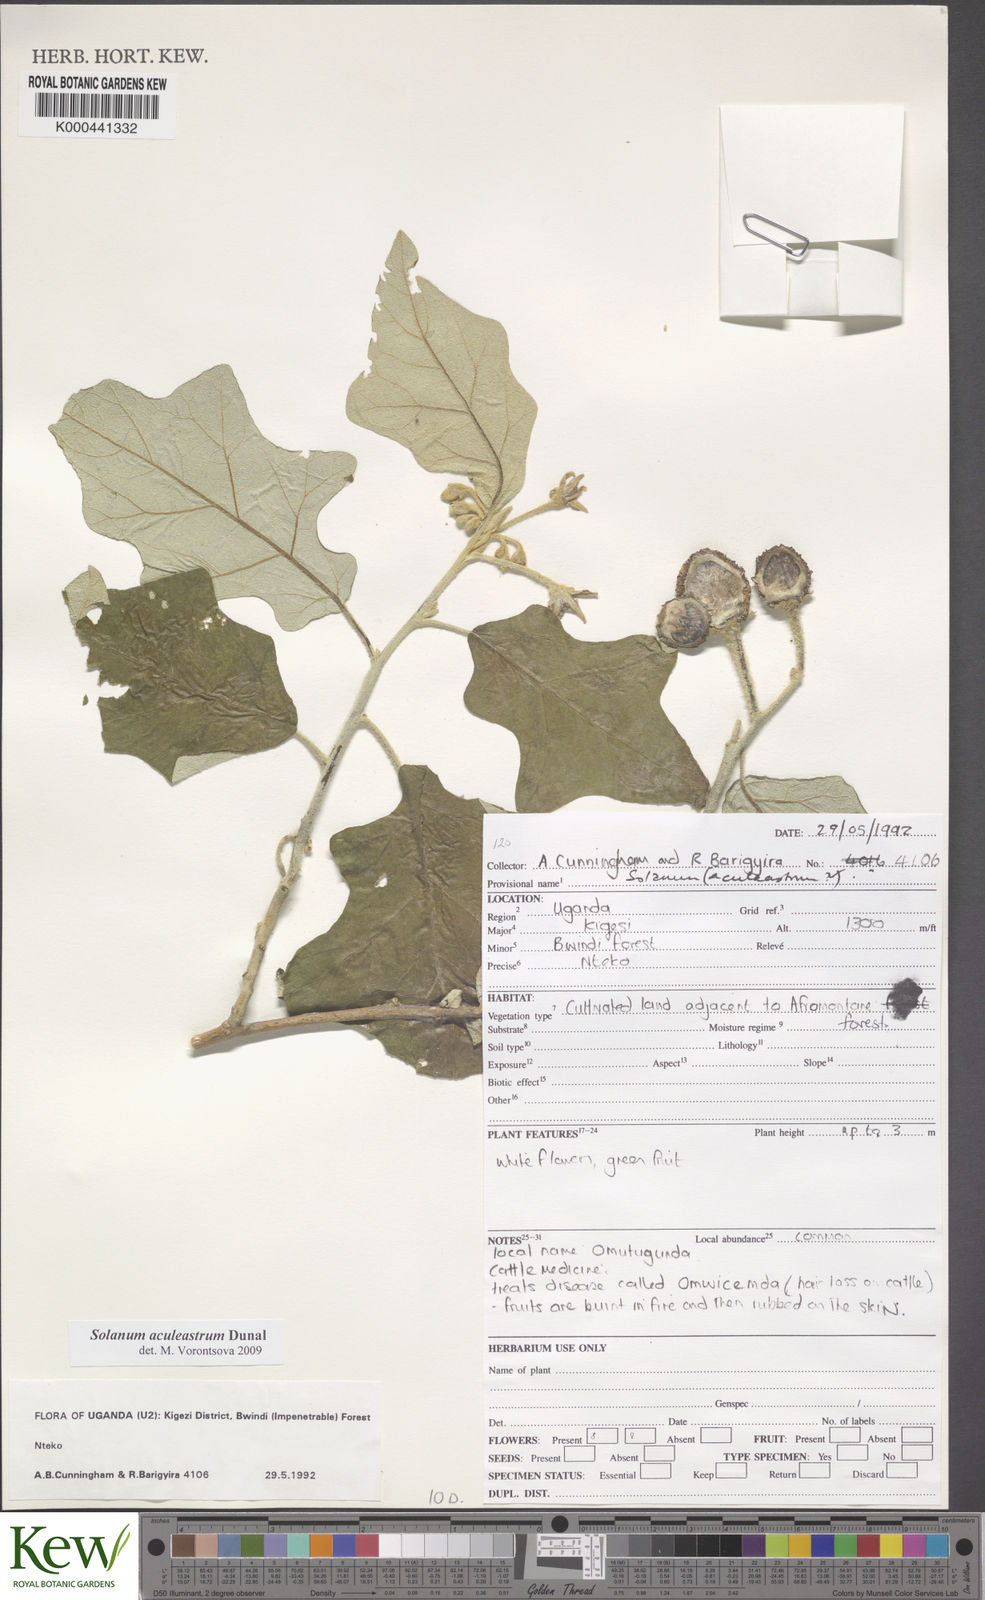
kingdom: Plantae
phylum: Tracheophyta
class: Magnoliopsida
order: Solanales
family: Solanaceae
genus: Solanum
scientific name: Solanum aculeastrum
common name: Goat bitter-apple
